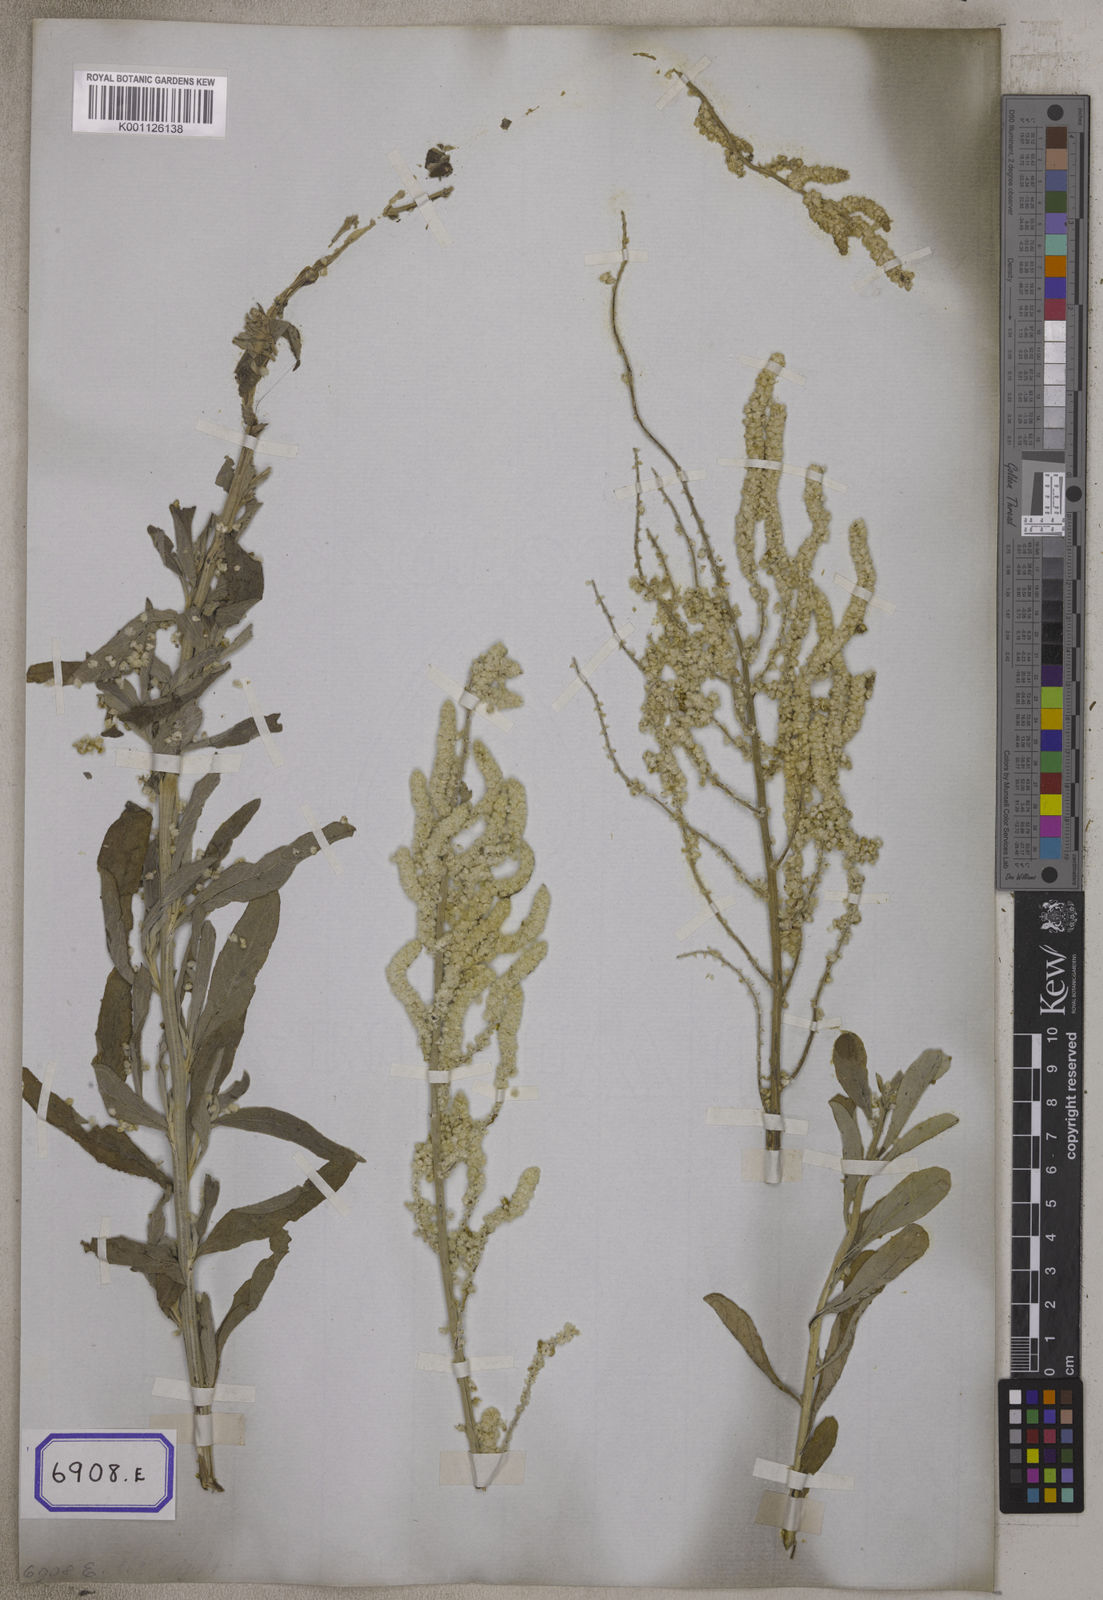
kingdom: Plantae
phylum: Tracheophyta
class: Magnoliopsida
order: Caryophyllales
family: Amaranthaceae
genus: Aerva
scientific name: Aerva
